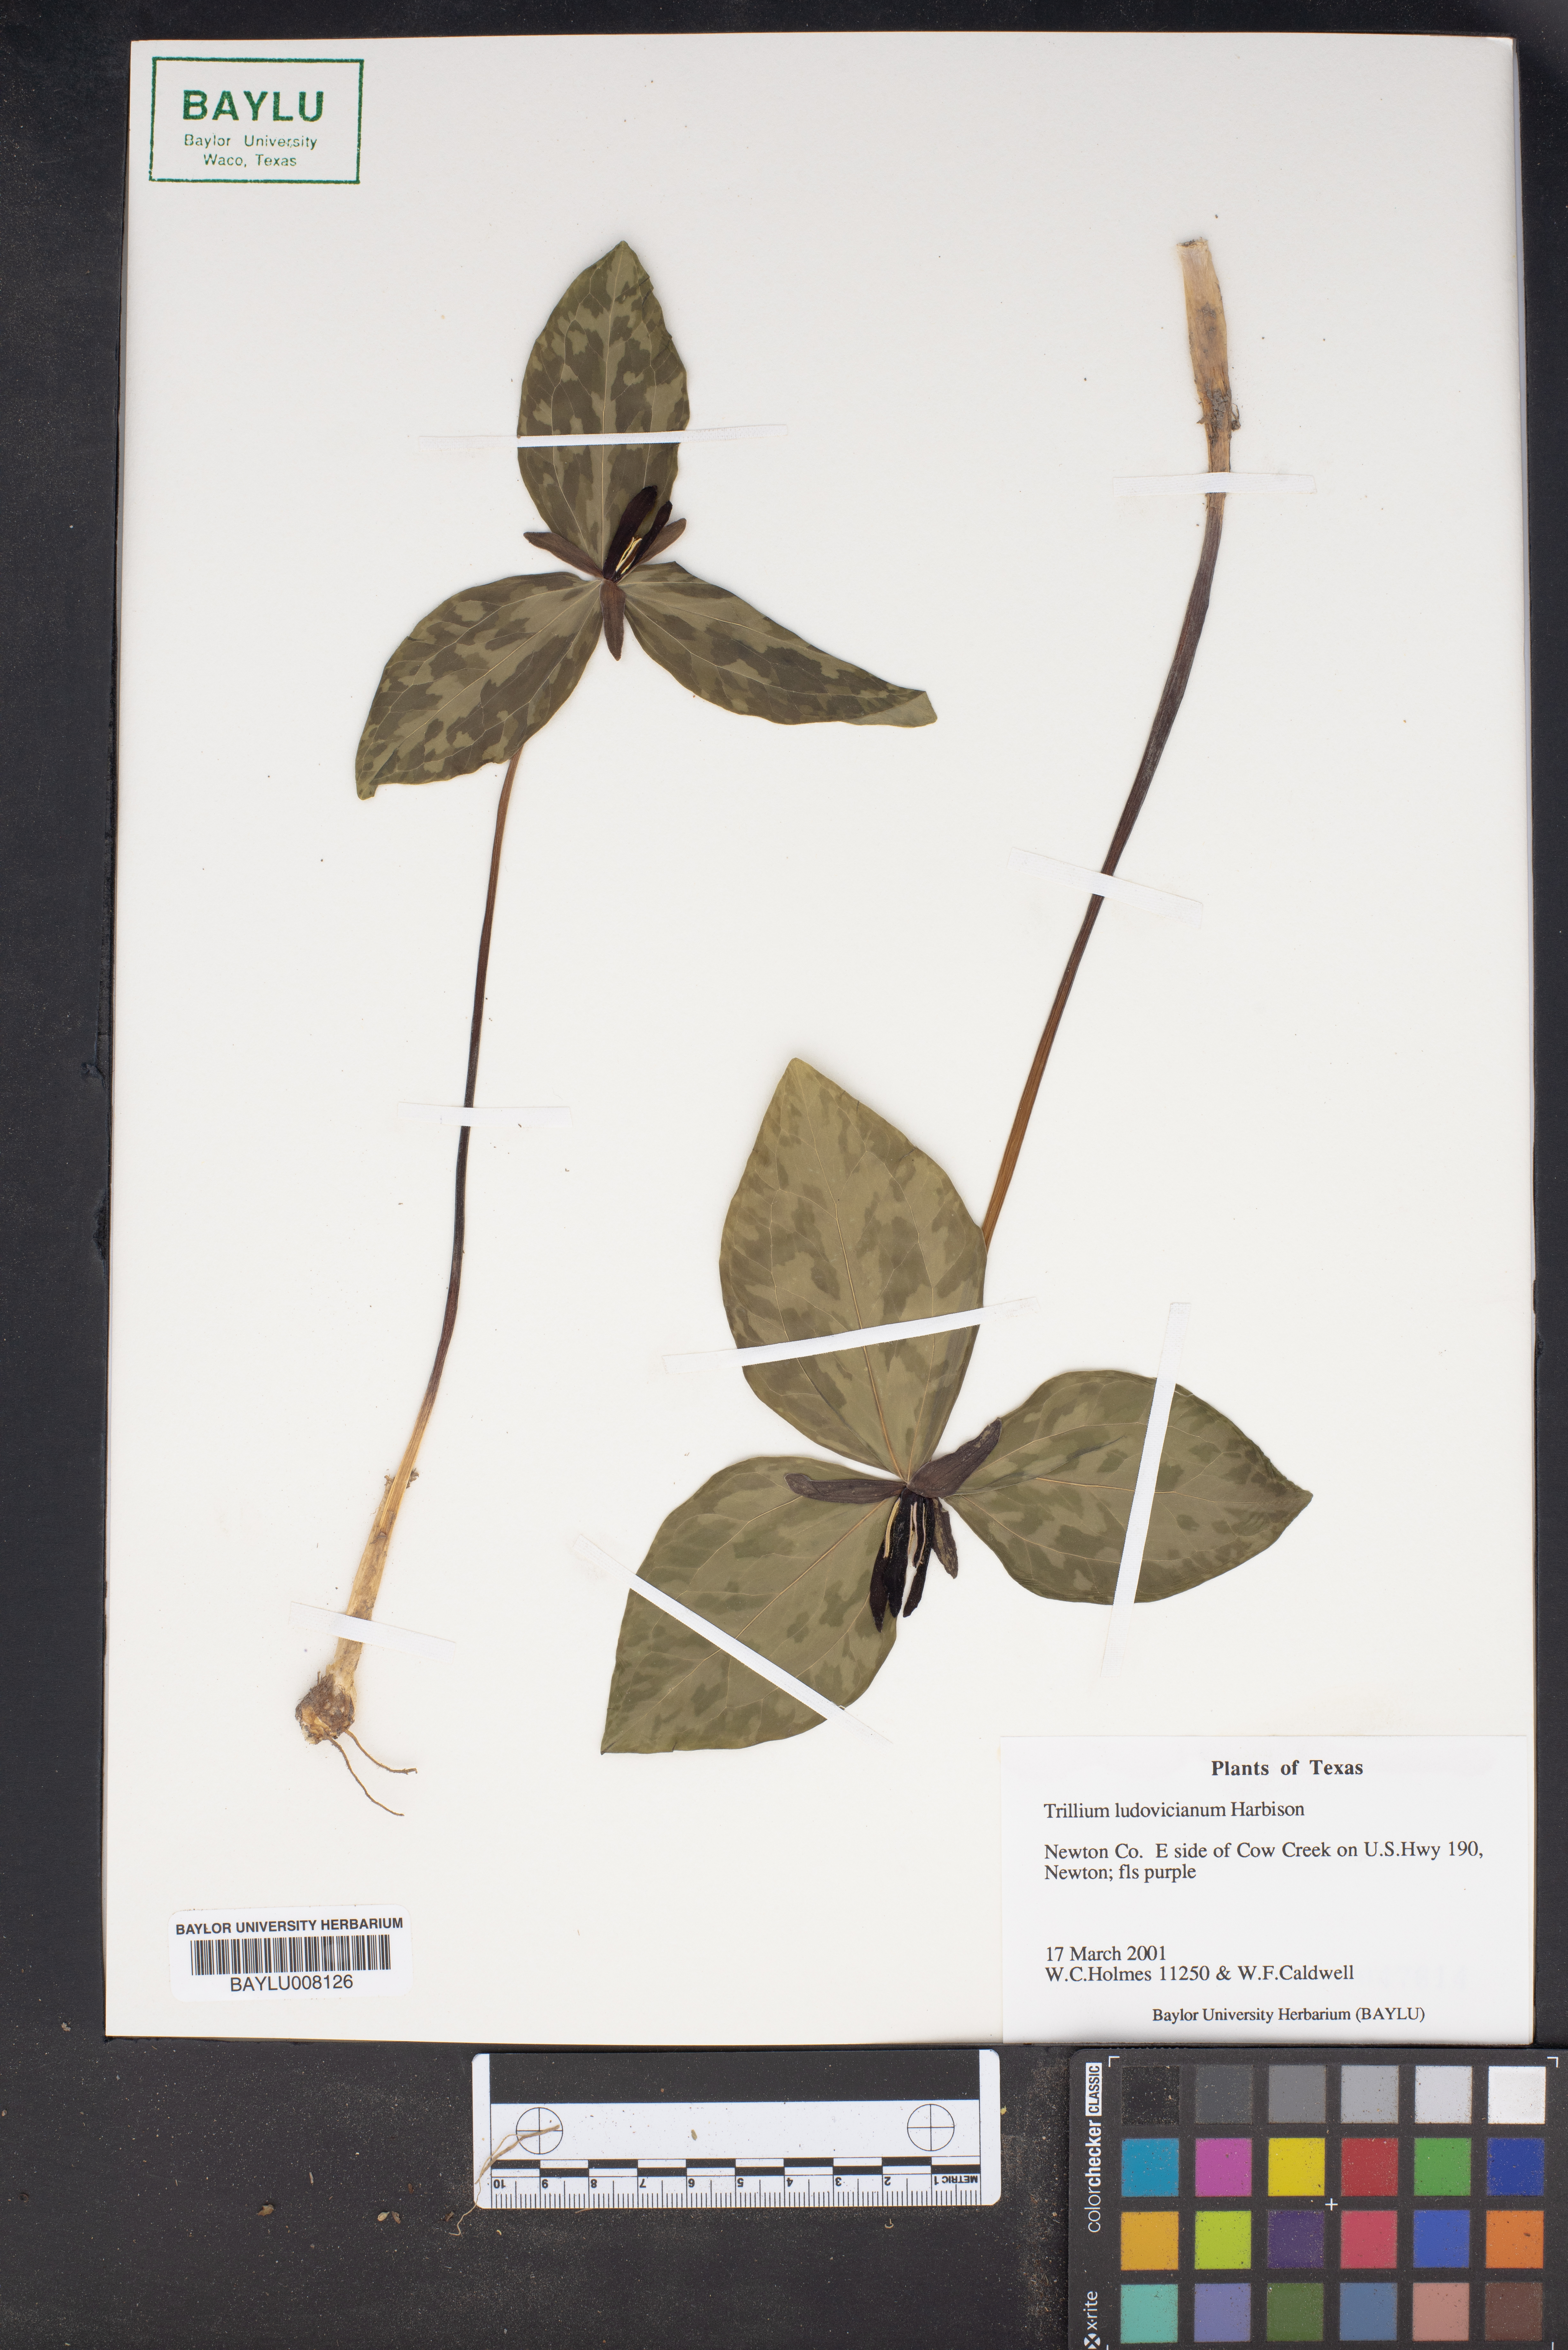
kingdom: Plantae
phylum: Tracheophyta
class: Liliopsida
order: Liliales
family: Melanthiaceae
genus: Trillium
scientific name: Trillium ludovicianum
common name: Louisiana toadshade
